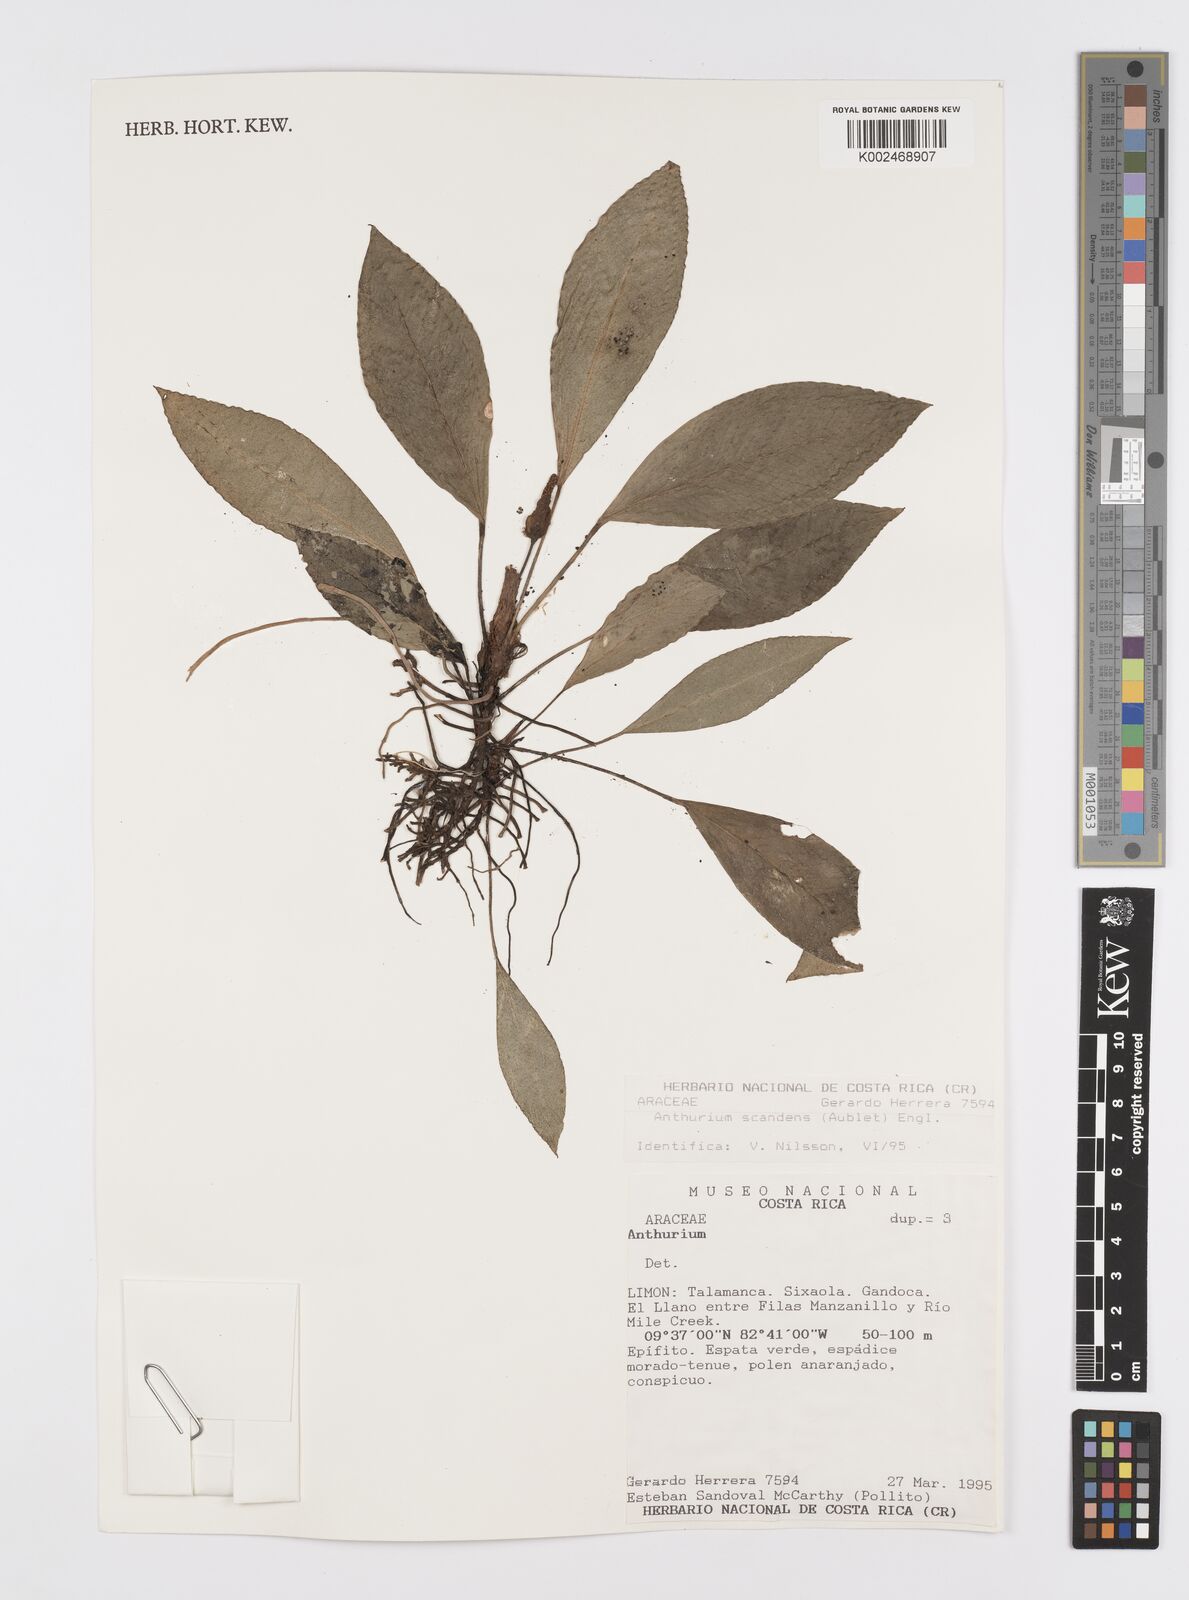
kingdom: Plantae
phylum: Tracheophyta
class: Liliopsida
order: Alismatales
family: Araceae
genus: Anthurium
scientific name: Anthurium scandens
